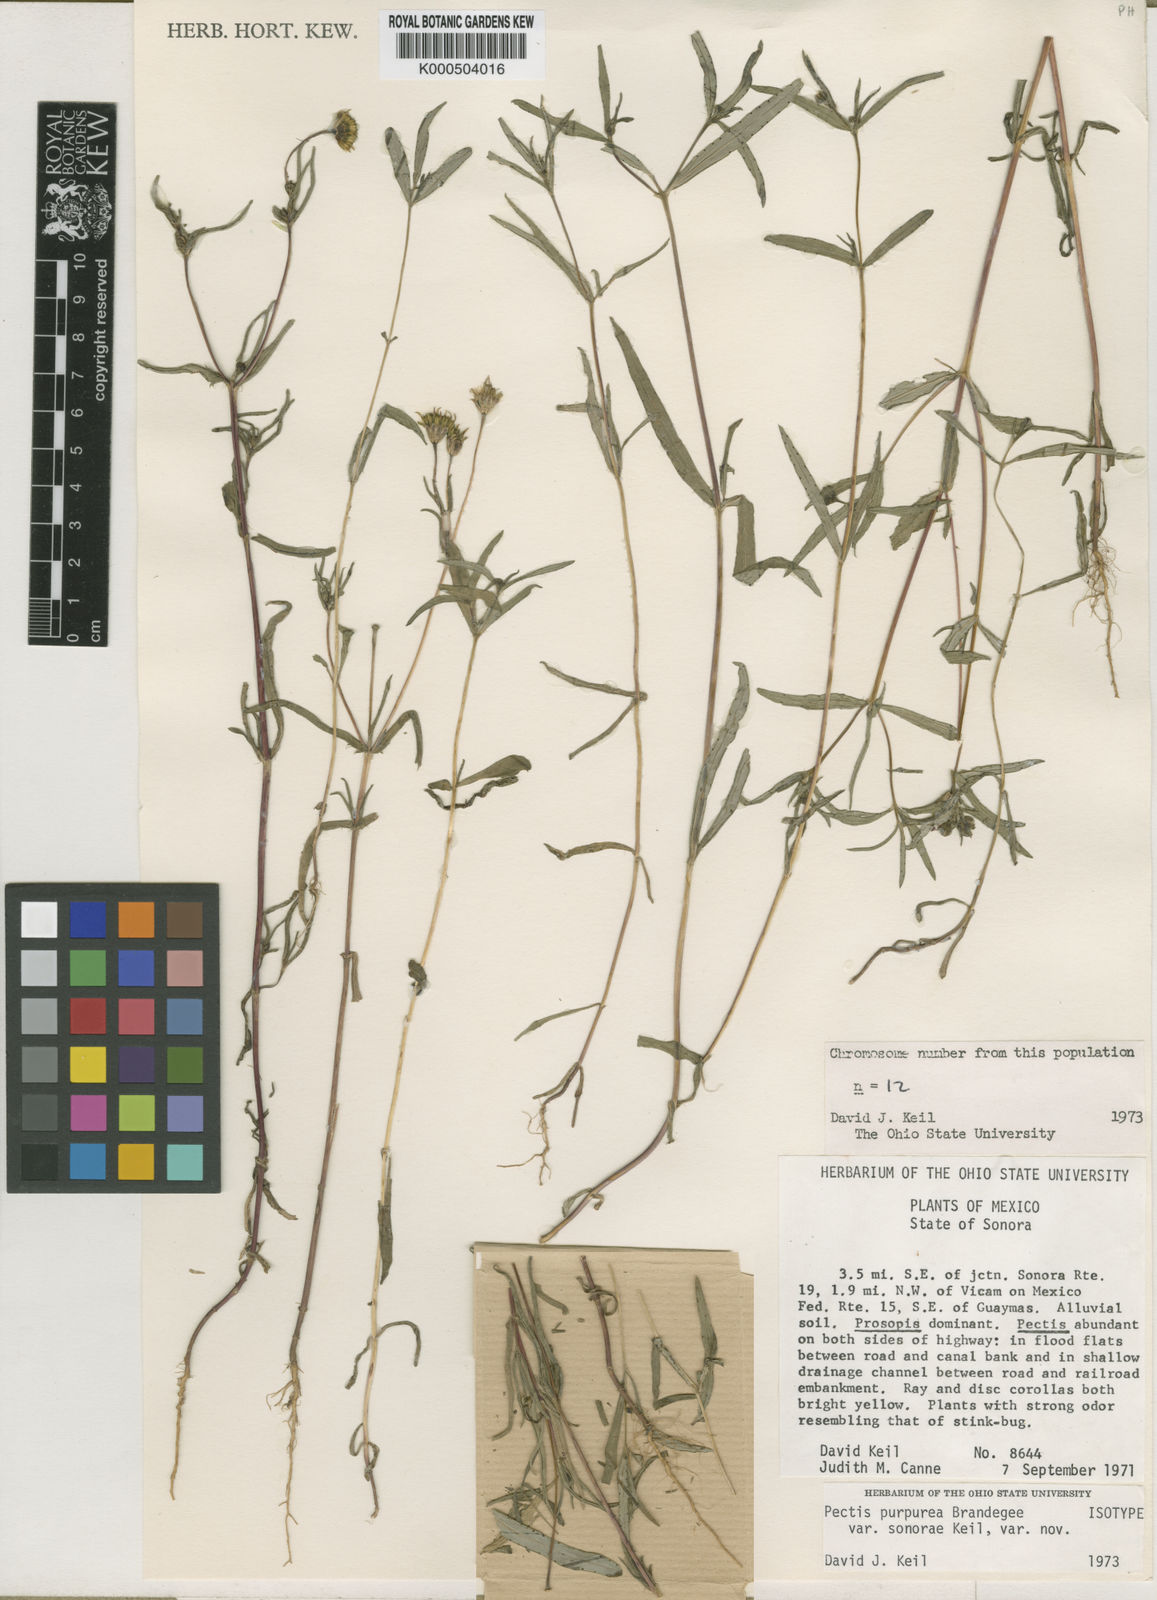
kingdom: Plantae
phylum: Tracheophyta
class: Magnoliopsida
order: Asterales
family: Asteraceae
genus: Pectis
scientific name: Pectis purpurea
